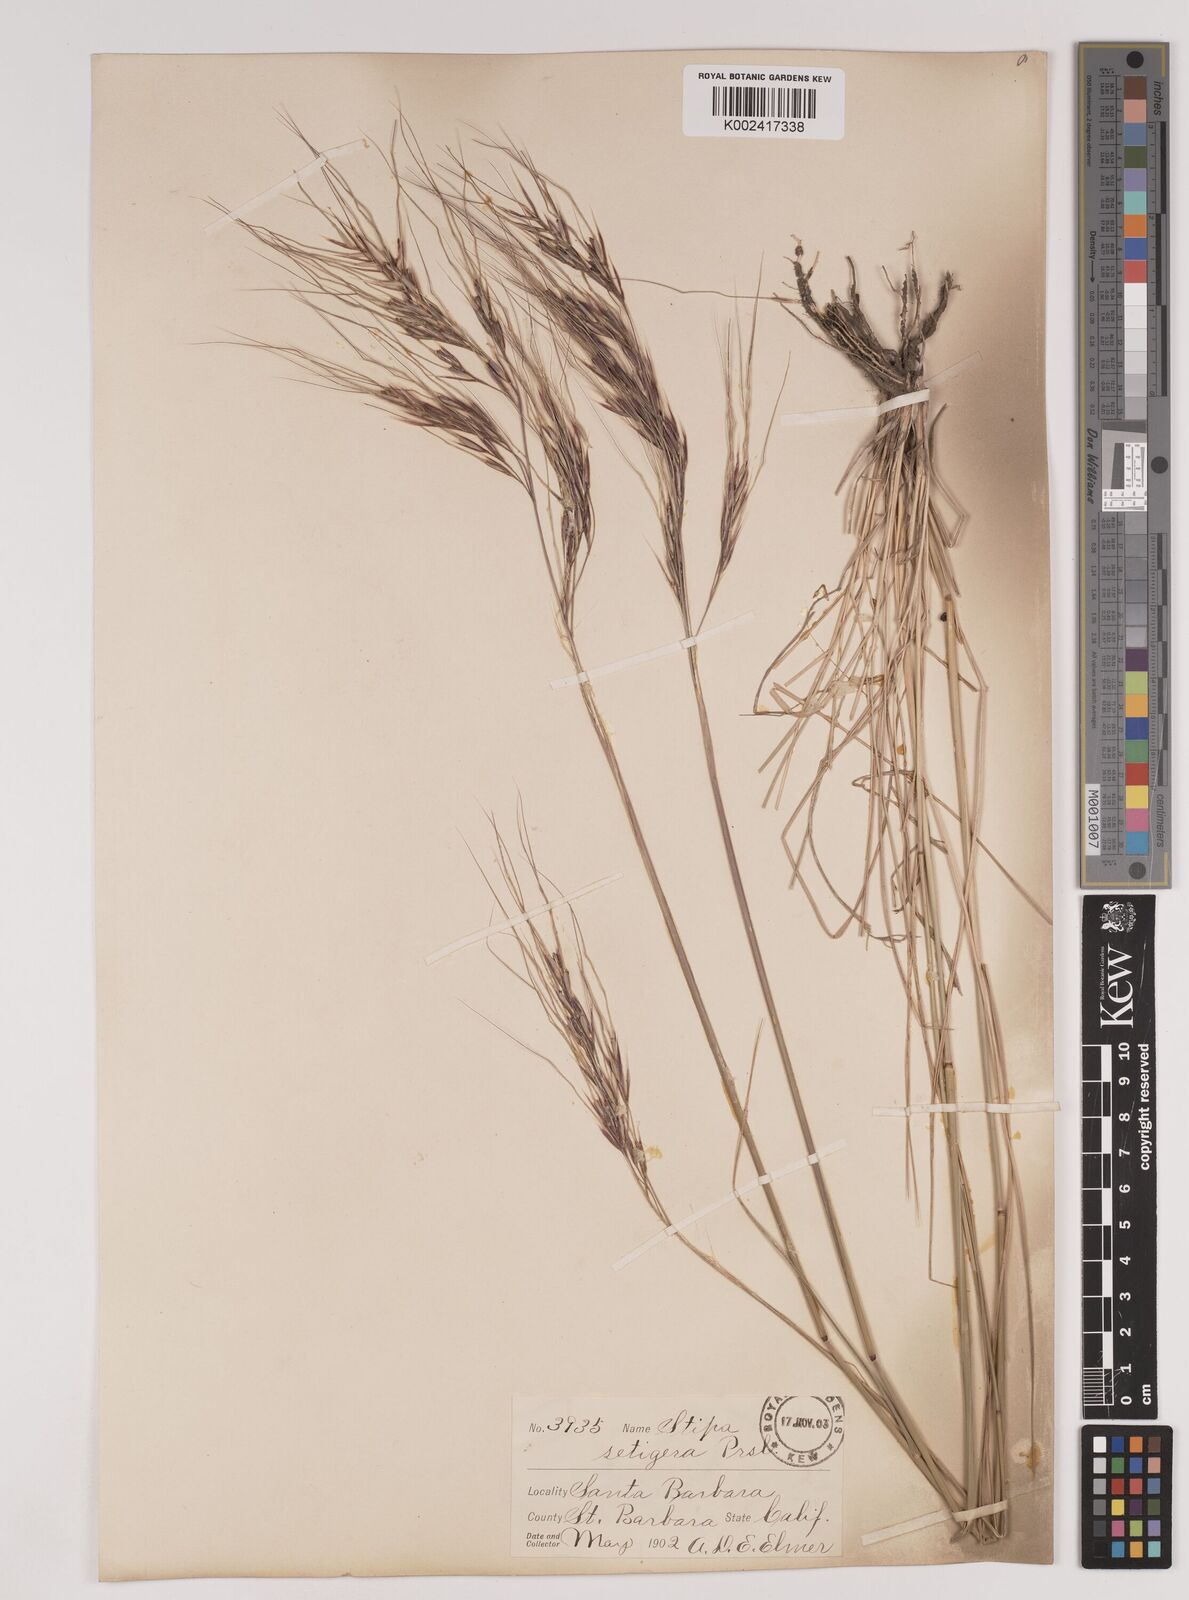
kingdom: Plantae
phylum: Tracheophyta
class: Liliopsida
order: Poales
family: Poaceae
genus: Nassella
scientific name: Nassella pulchra
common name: Purple needlegrass
